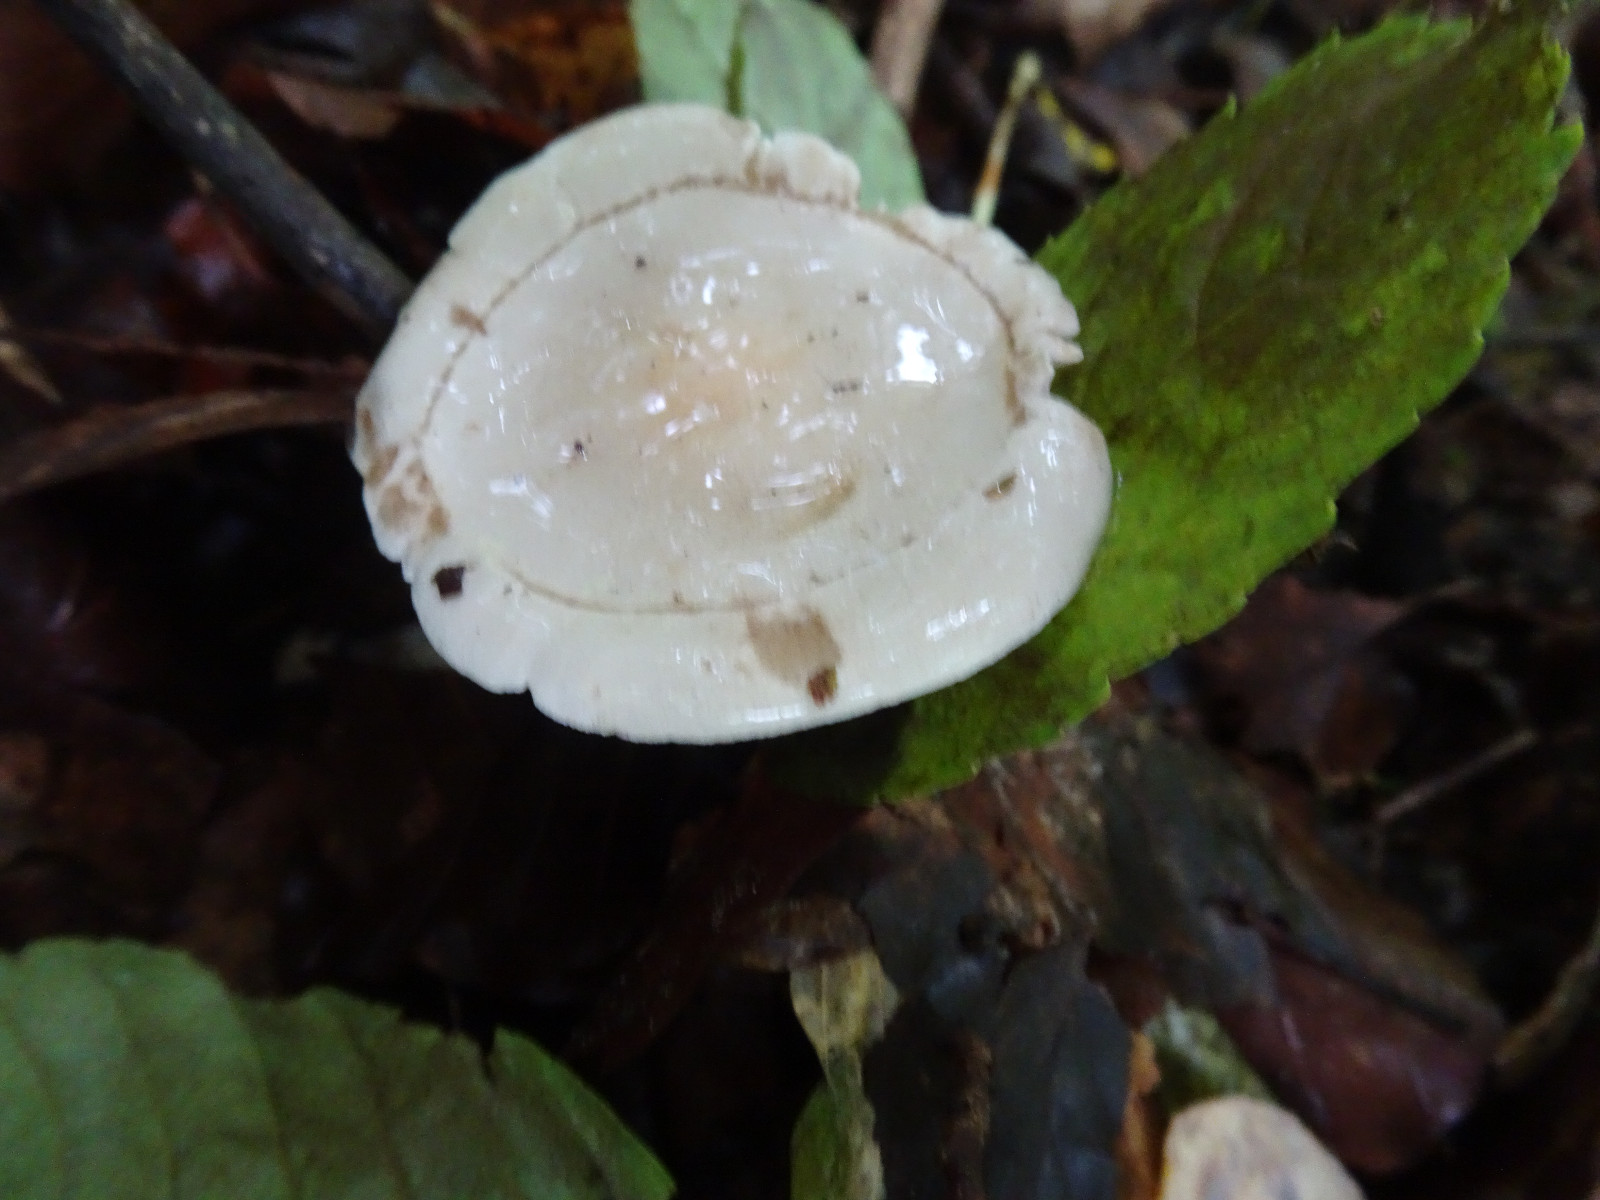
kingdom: Fungi
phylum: Basidiomycota
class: Agaricomycetes
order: Agaricales
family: Hymenogastraceae
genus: Hebeloma
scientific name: Hebeloma crustuliniforme
